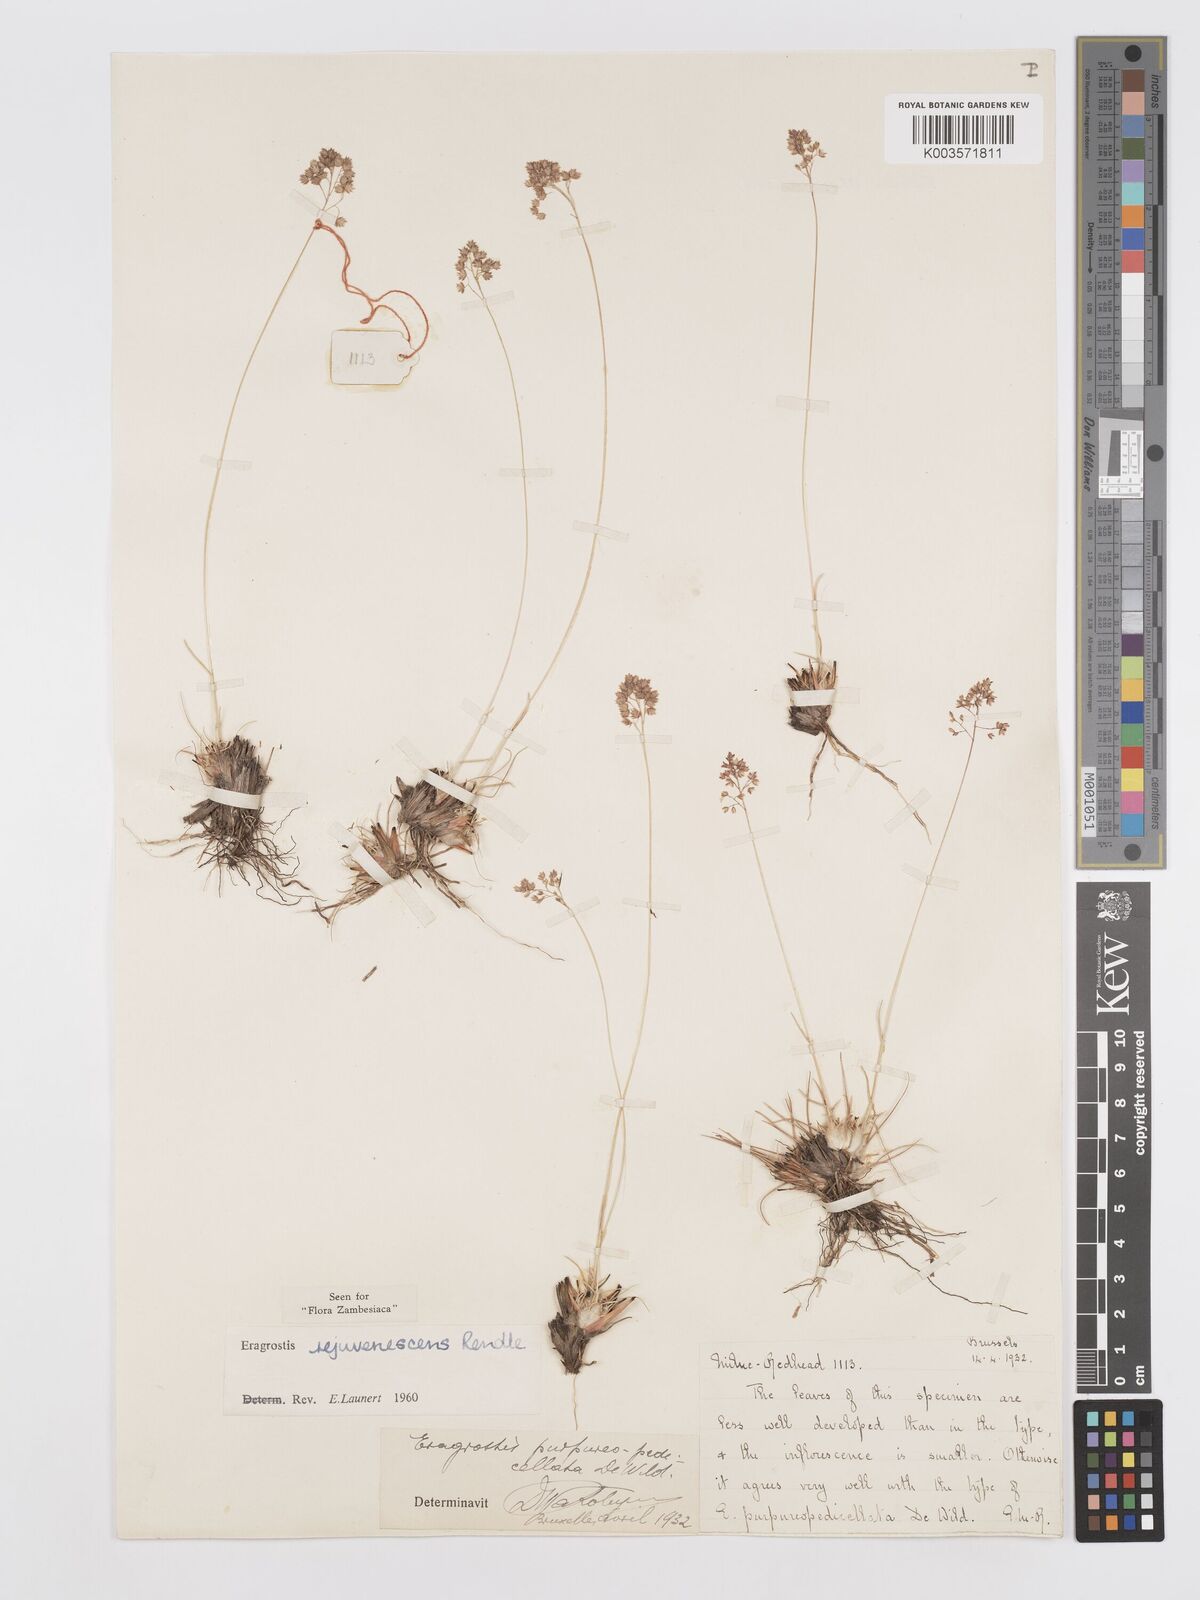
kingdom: Plantae
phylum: Tracheophyta
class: Liliopsida
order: Poales
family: Poaceae
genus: Eragrostis
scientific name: Eragrostis rejuvenescens
